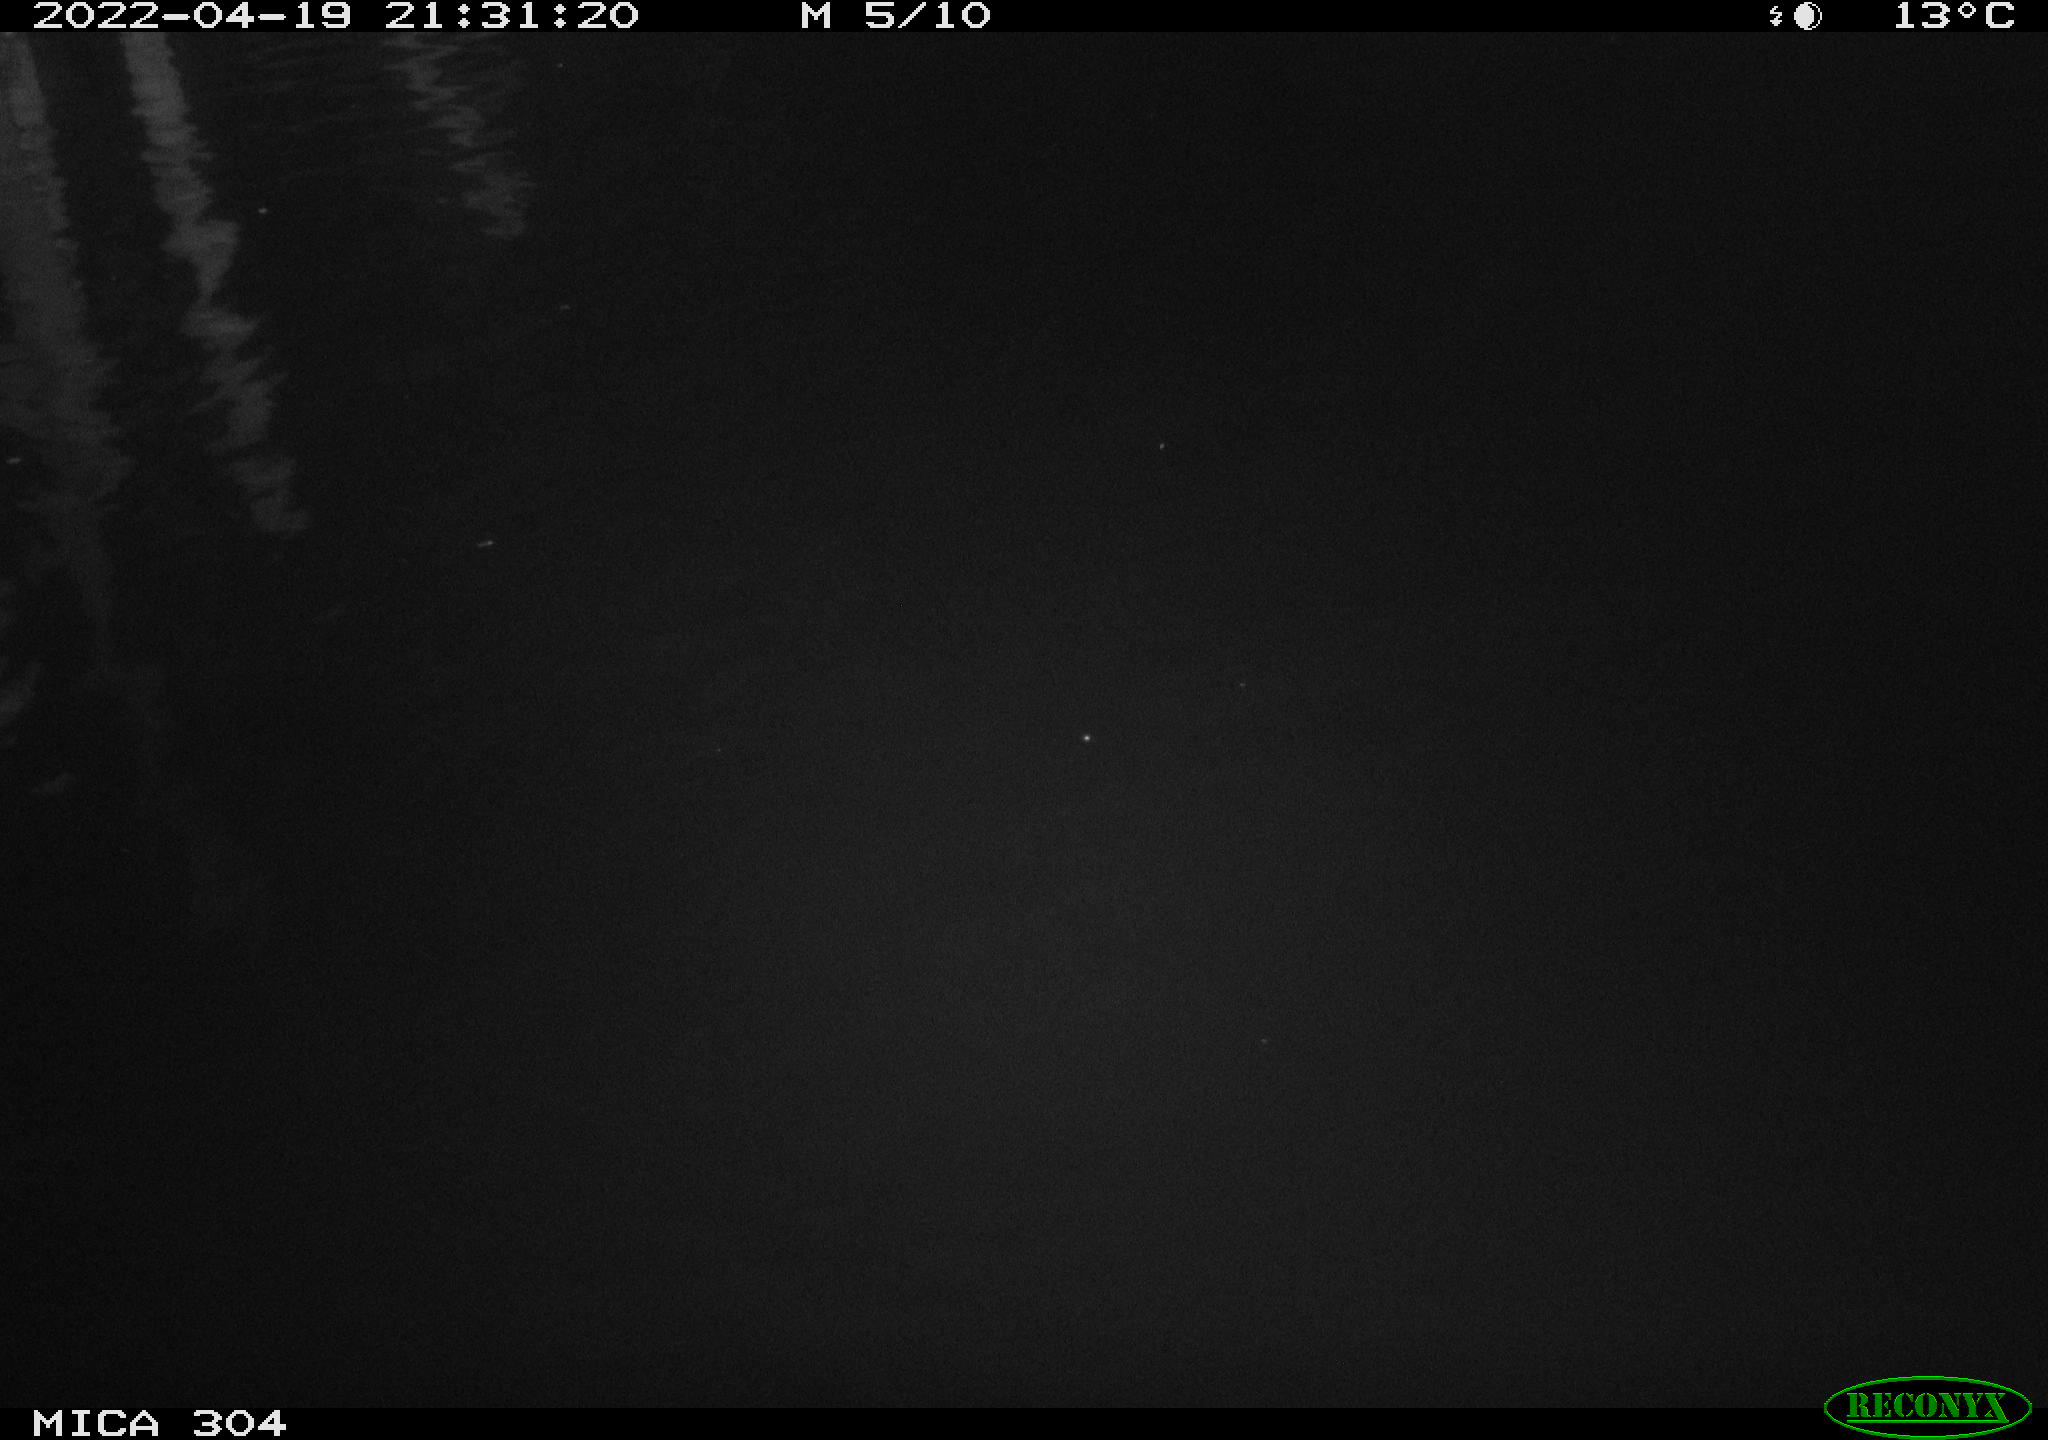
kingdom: Animalia
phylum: Chordata
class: Aves
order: Anseriformes
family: Anatidae
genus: Anas
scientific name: Anas platyrhynchos
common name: Mallard
